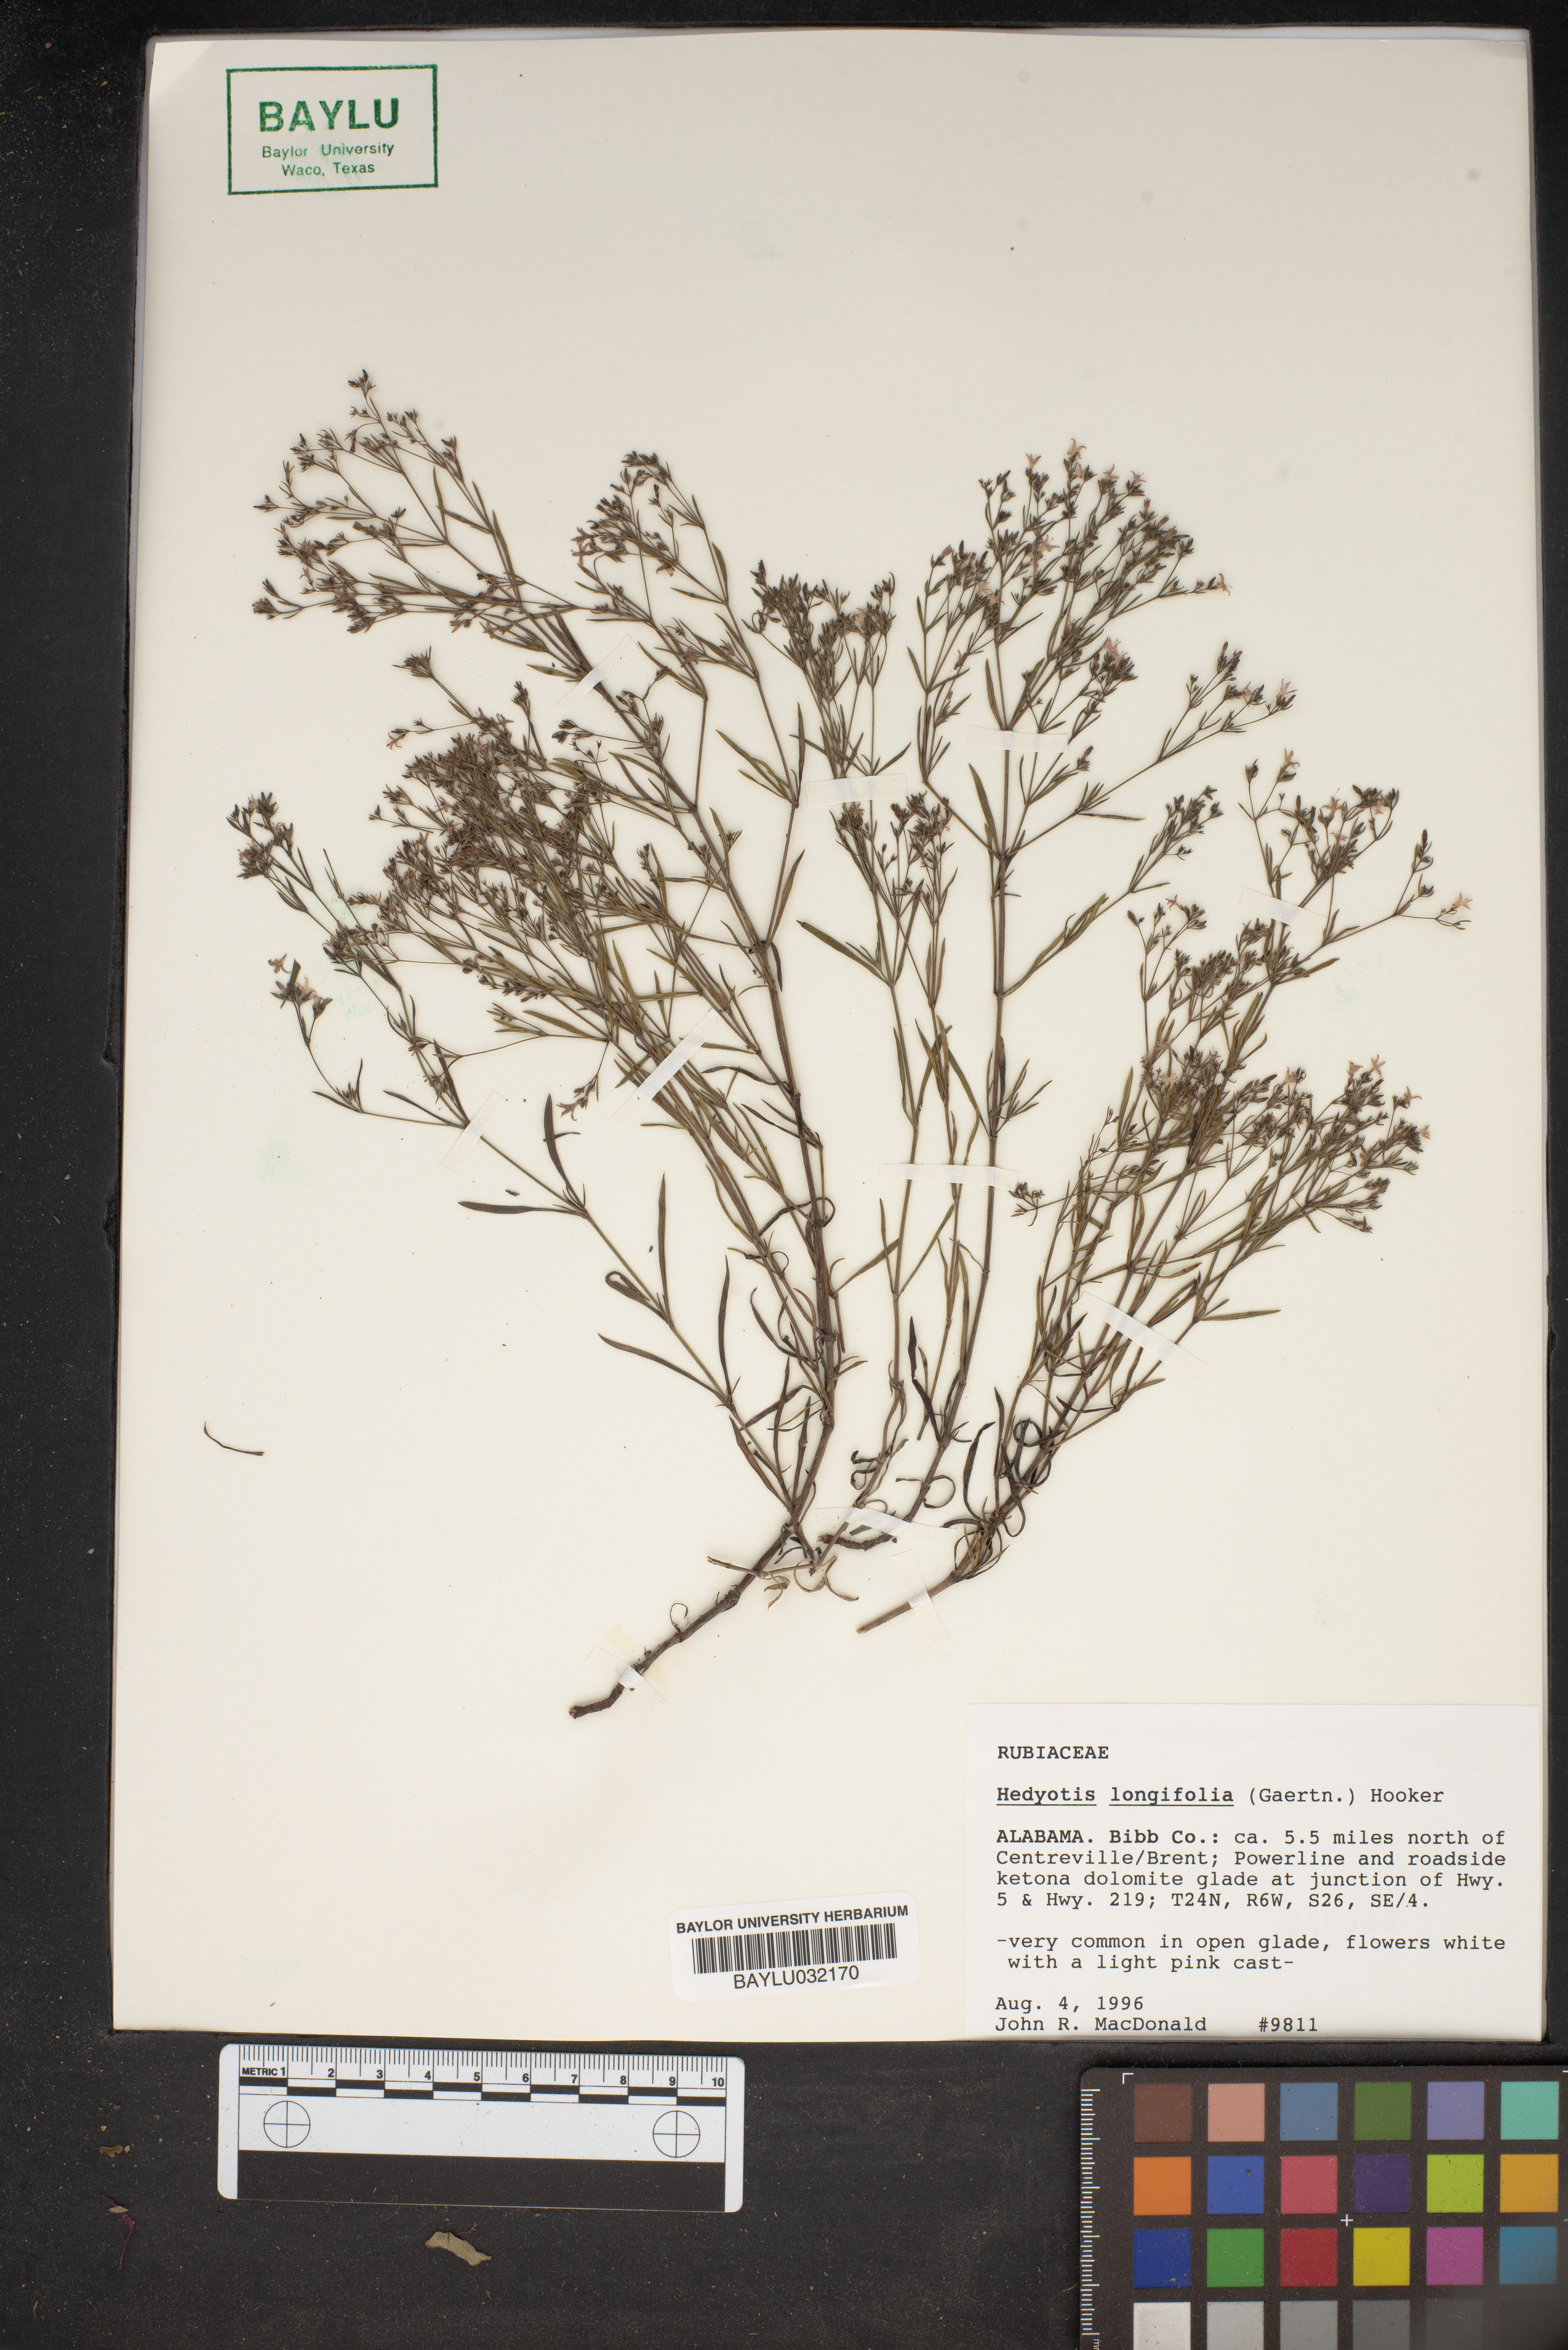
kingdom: Plantae
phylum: Tracheophyta
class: Magnoliopsida
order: Gentianales
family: Rubiaceae
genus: Houstonia
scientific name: Houstonia longifolia
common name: Long-leaved bluets
